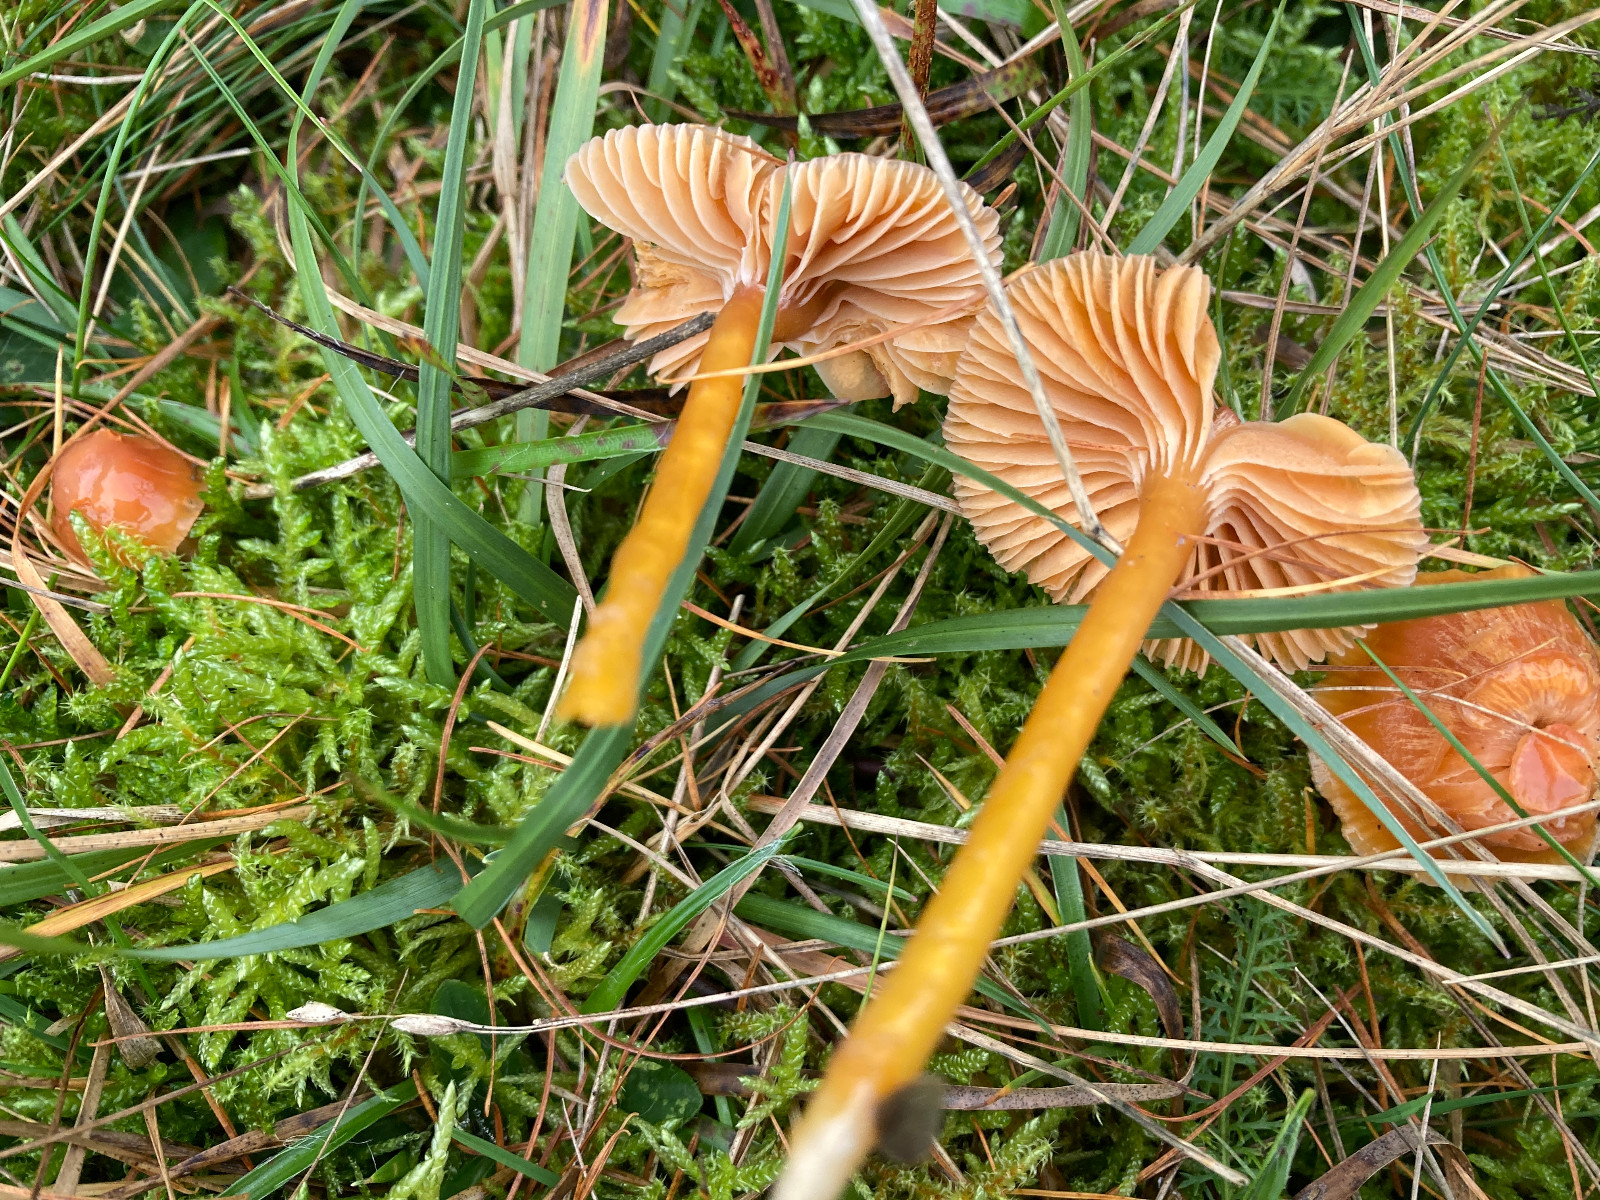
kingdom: Fungi
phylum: Basidiomycota
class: Agaricomycetes
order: Agaricales
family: Hygrophoraceae
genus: Gliophorus
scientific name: Gliophorus laetus
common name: brusk-vokshat
